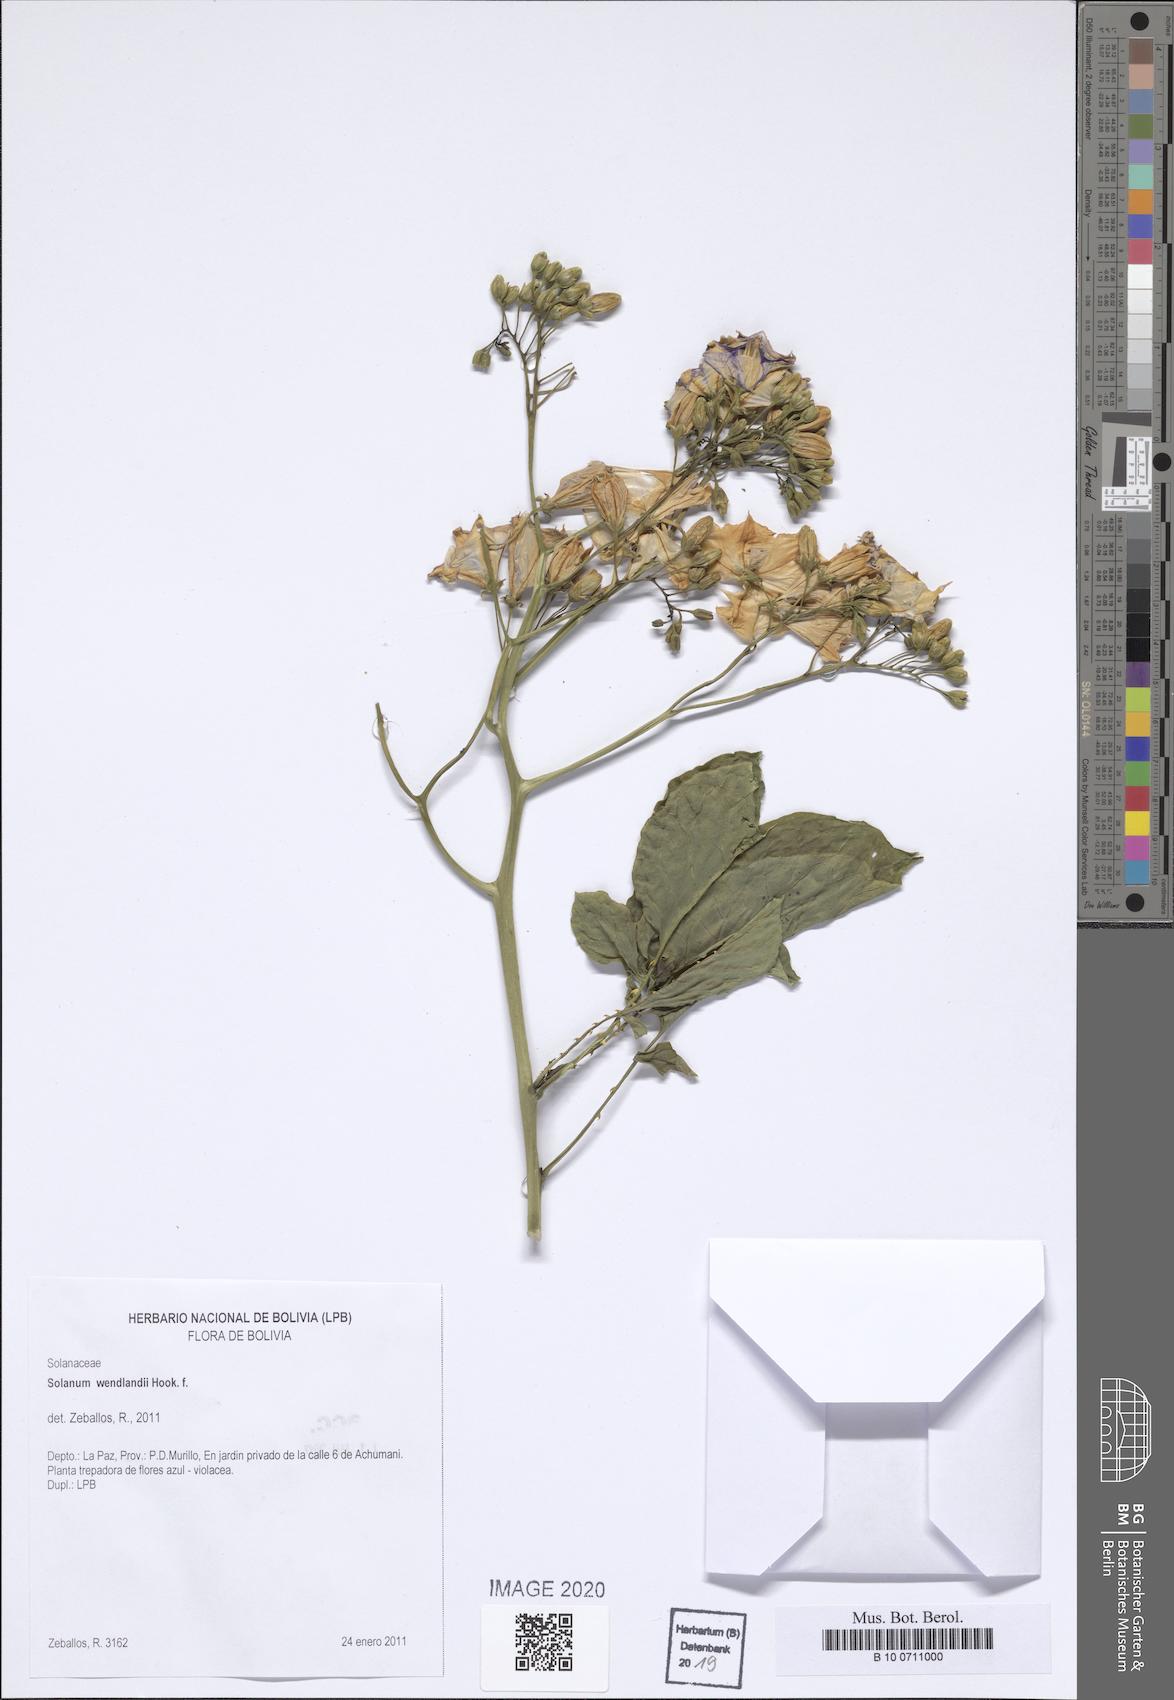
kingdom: Plantae
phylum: Tracheophyta
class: Magnoliopsida
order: Solanales
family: Solanaceae
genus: Solanum
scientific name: Solanum wendlandii
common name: Costa rican nightshade
